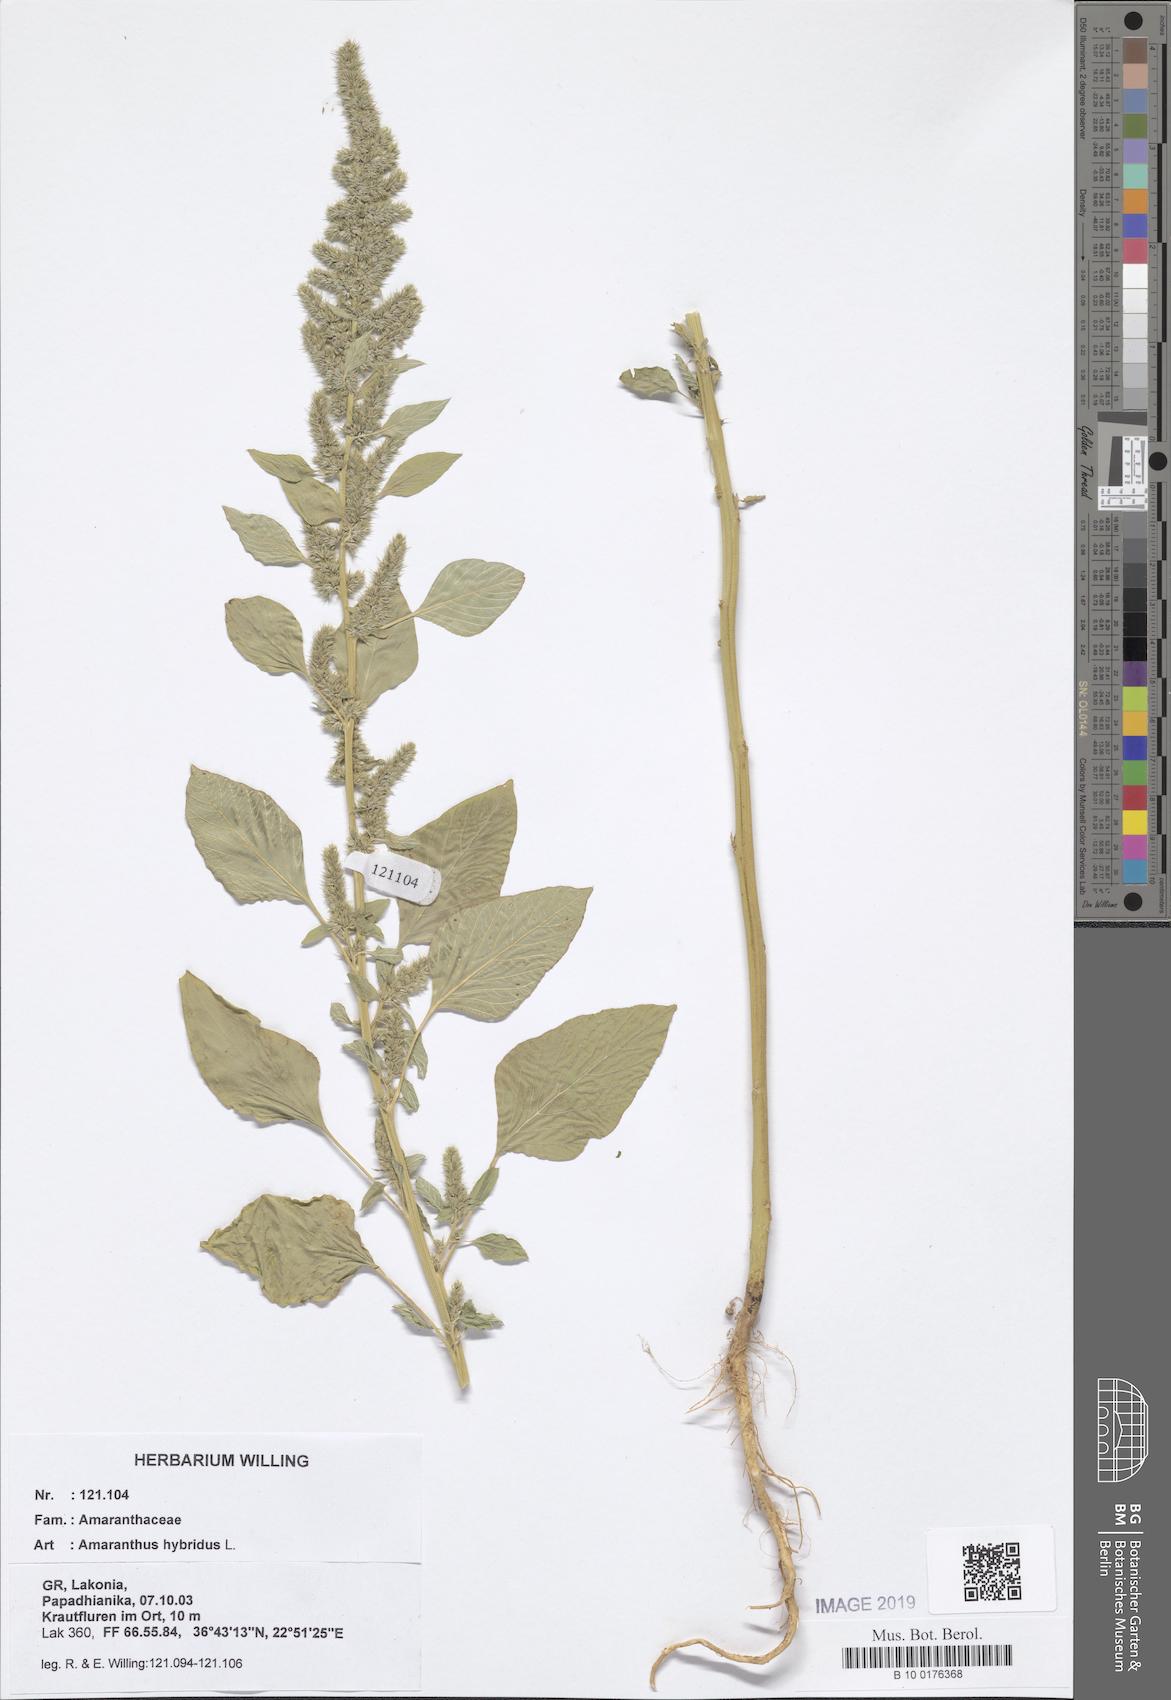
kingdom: Plantae
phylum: Tracheophyta
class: Magnoliopsida
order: Caryophyllales
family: Amaranthaceae
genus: Amaranthus
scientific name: Amaranthus hybridus
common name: Green amaranth
